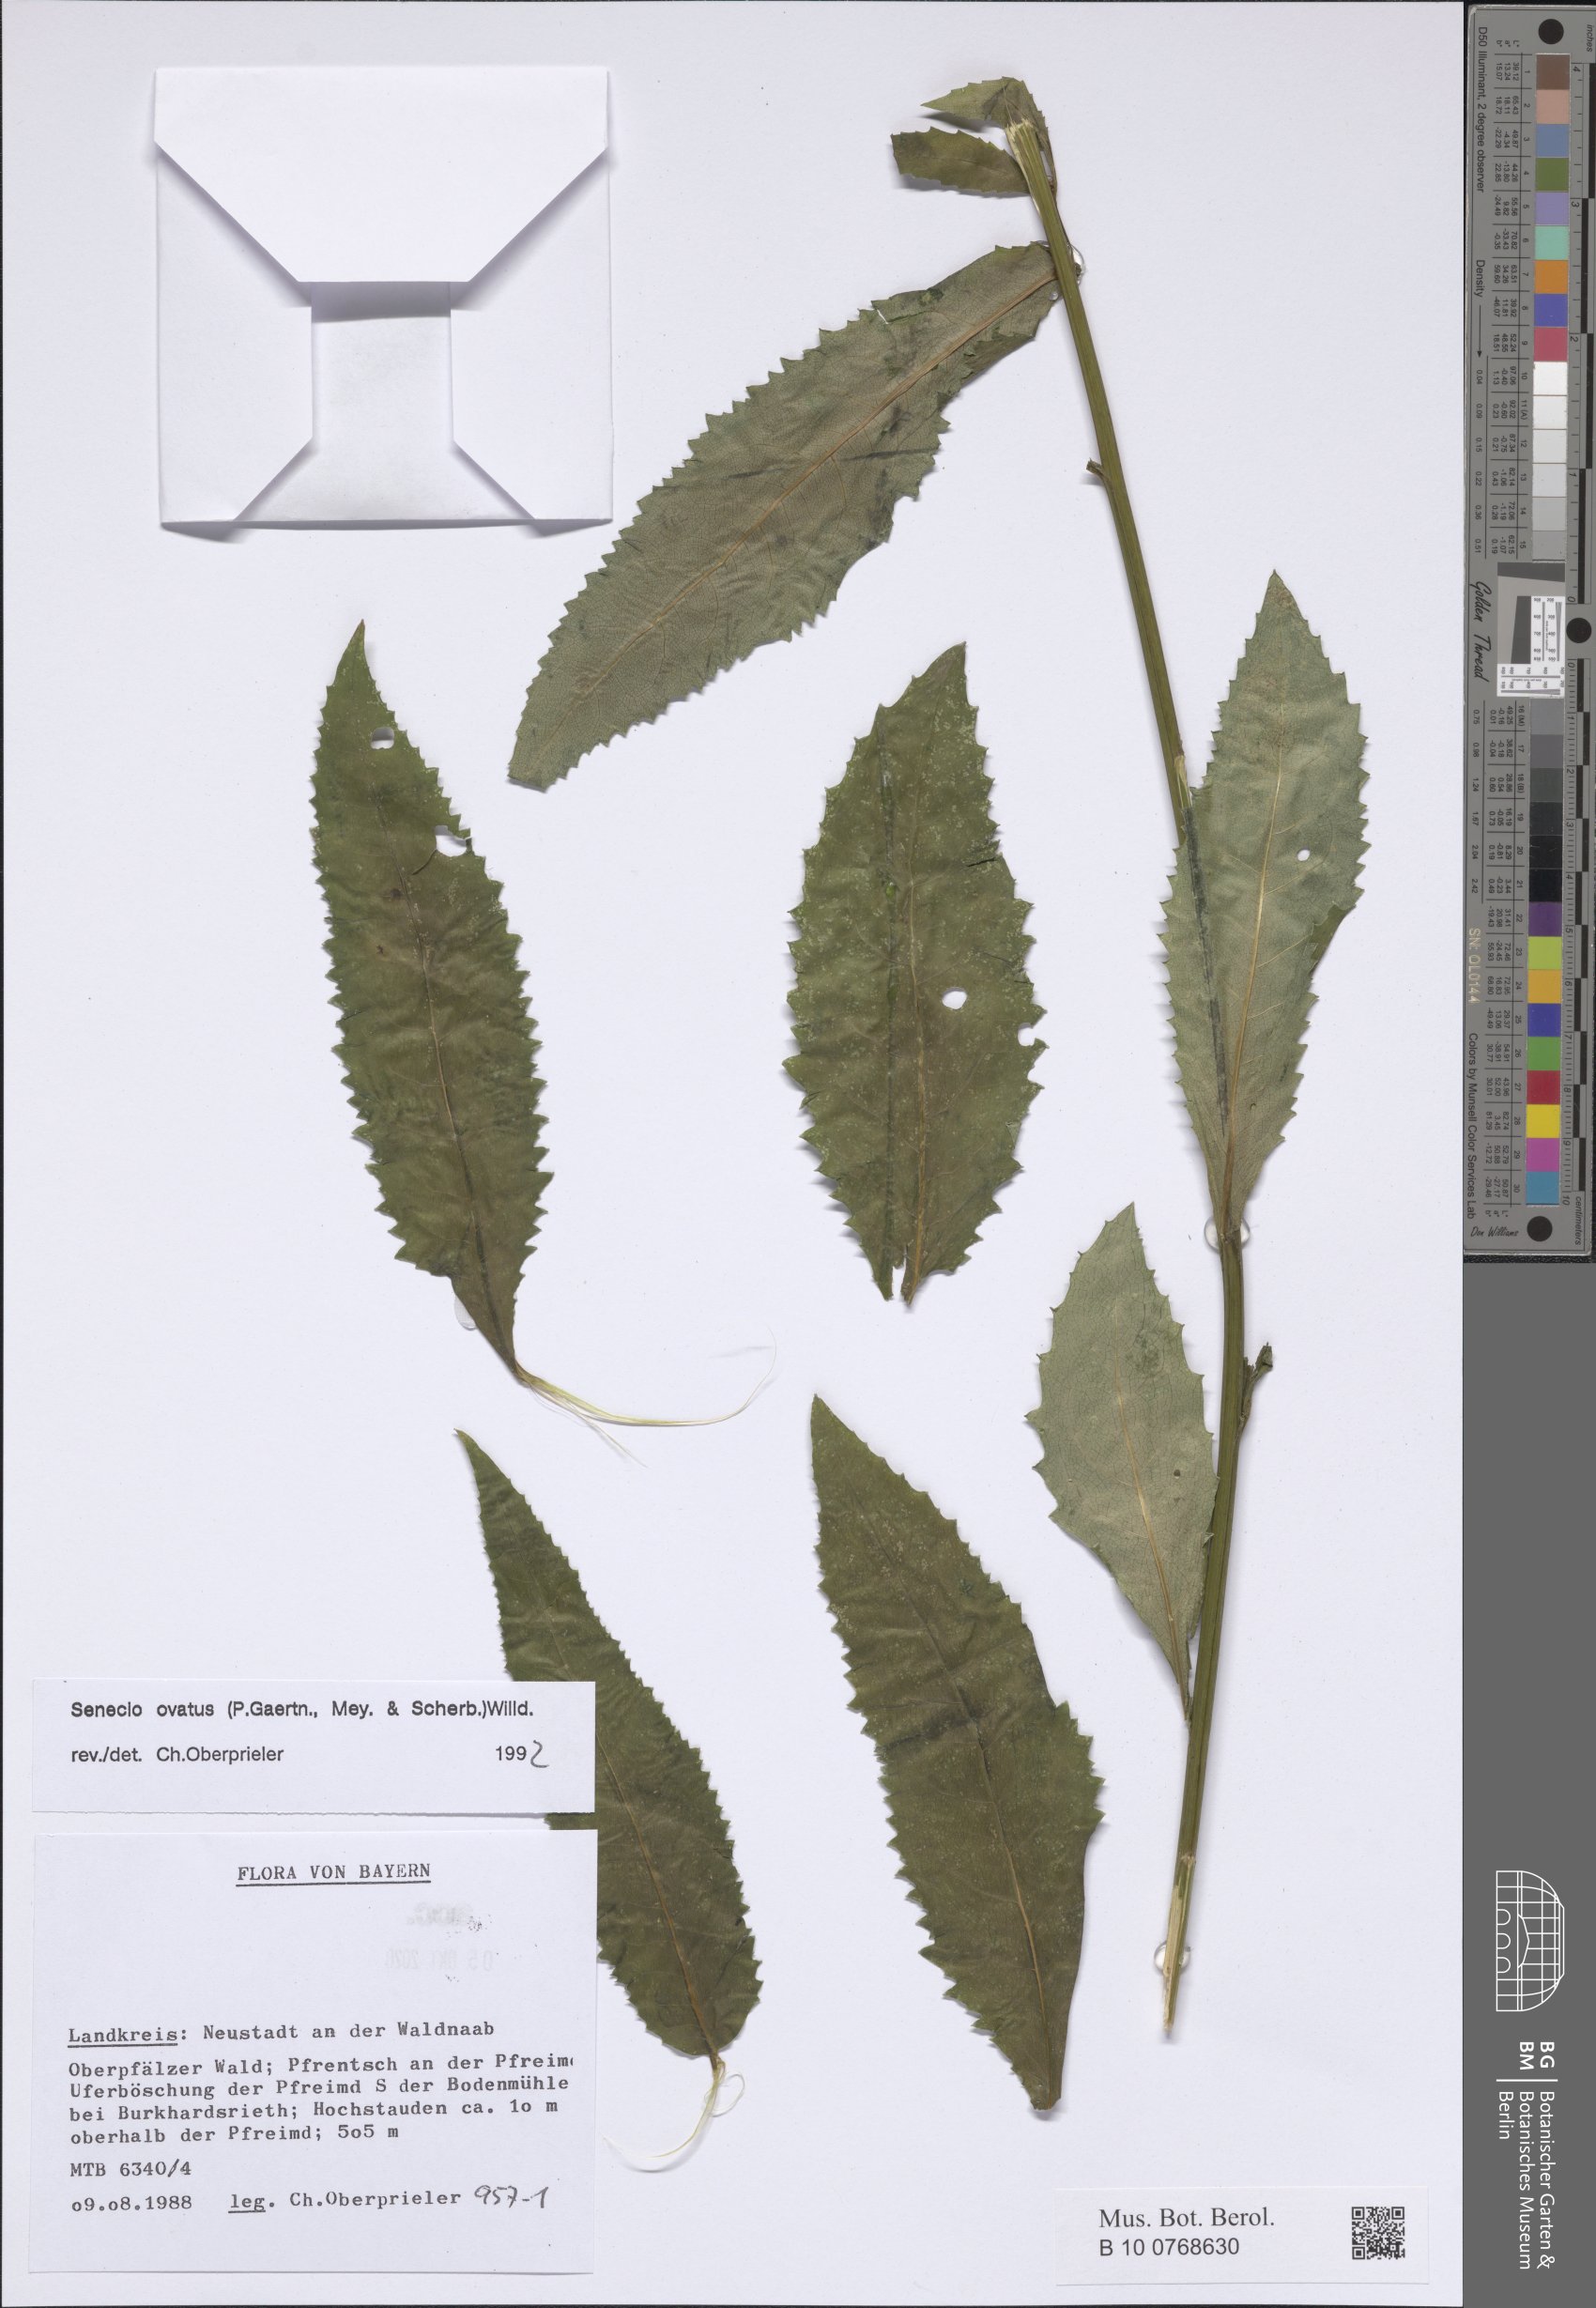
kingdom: Plantae
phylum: Tracheophyta
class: Magnoliopsida
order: Asterales
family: Asteraceae
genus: Senecio
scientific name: Senecio ovatus
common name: Wood ragwort
